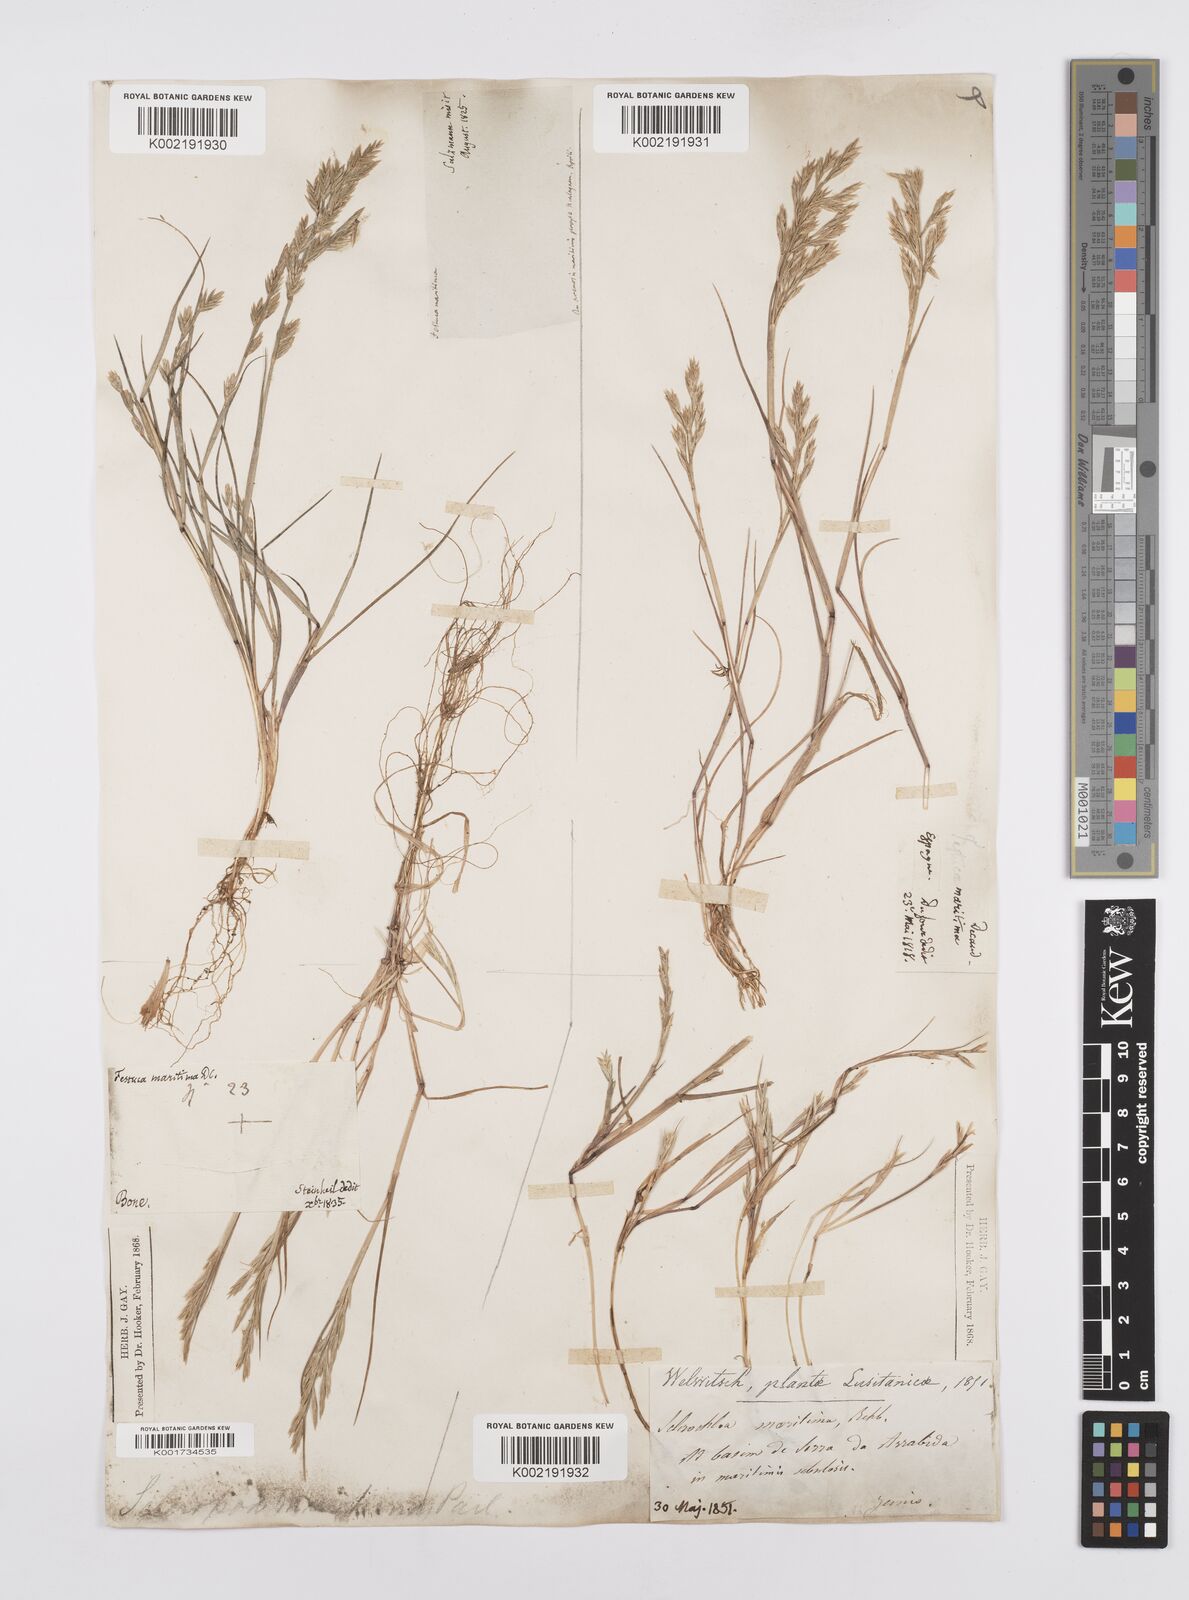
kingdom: Plantae
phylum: Tracheophyta
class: Liliopsida
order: Poales
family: Poaceae
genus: Cutandia
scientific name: Cutandia maritima
